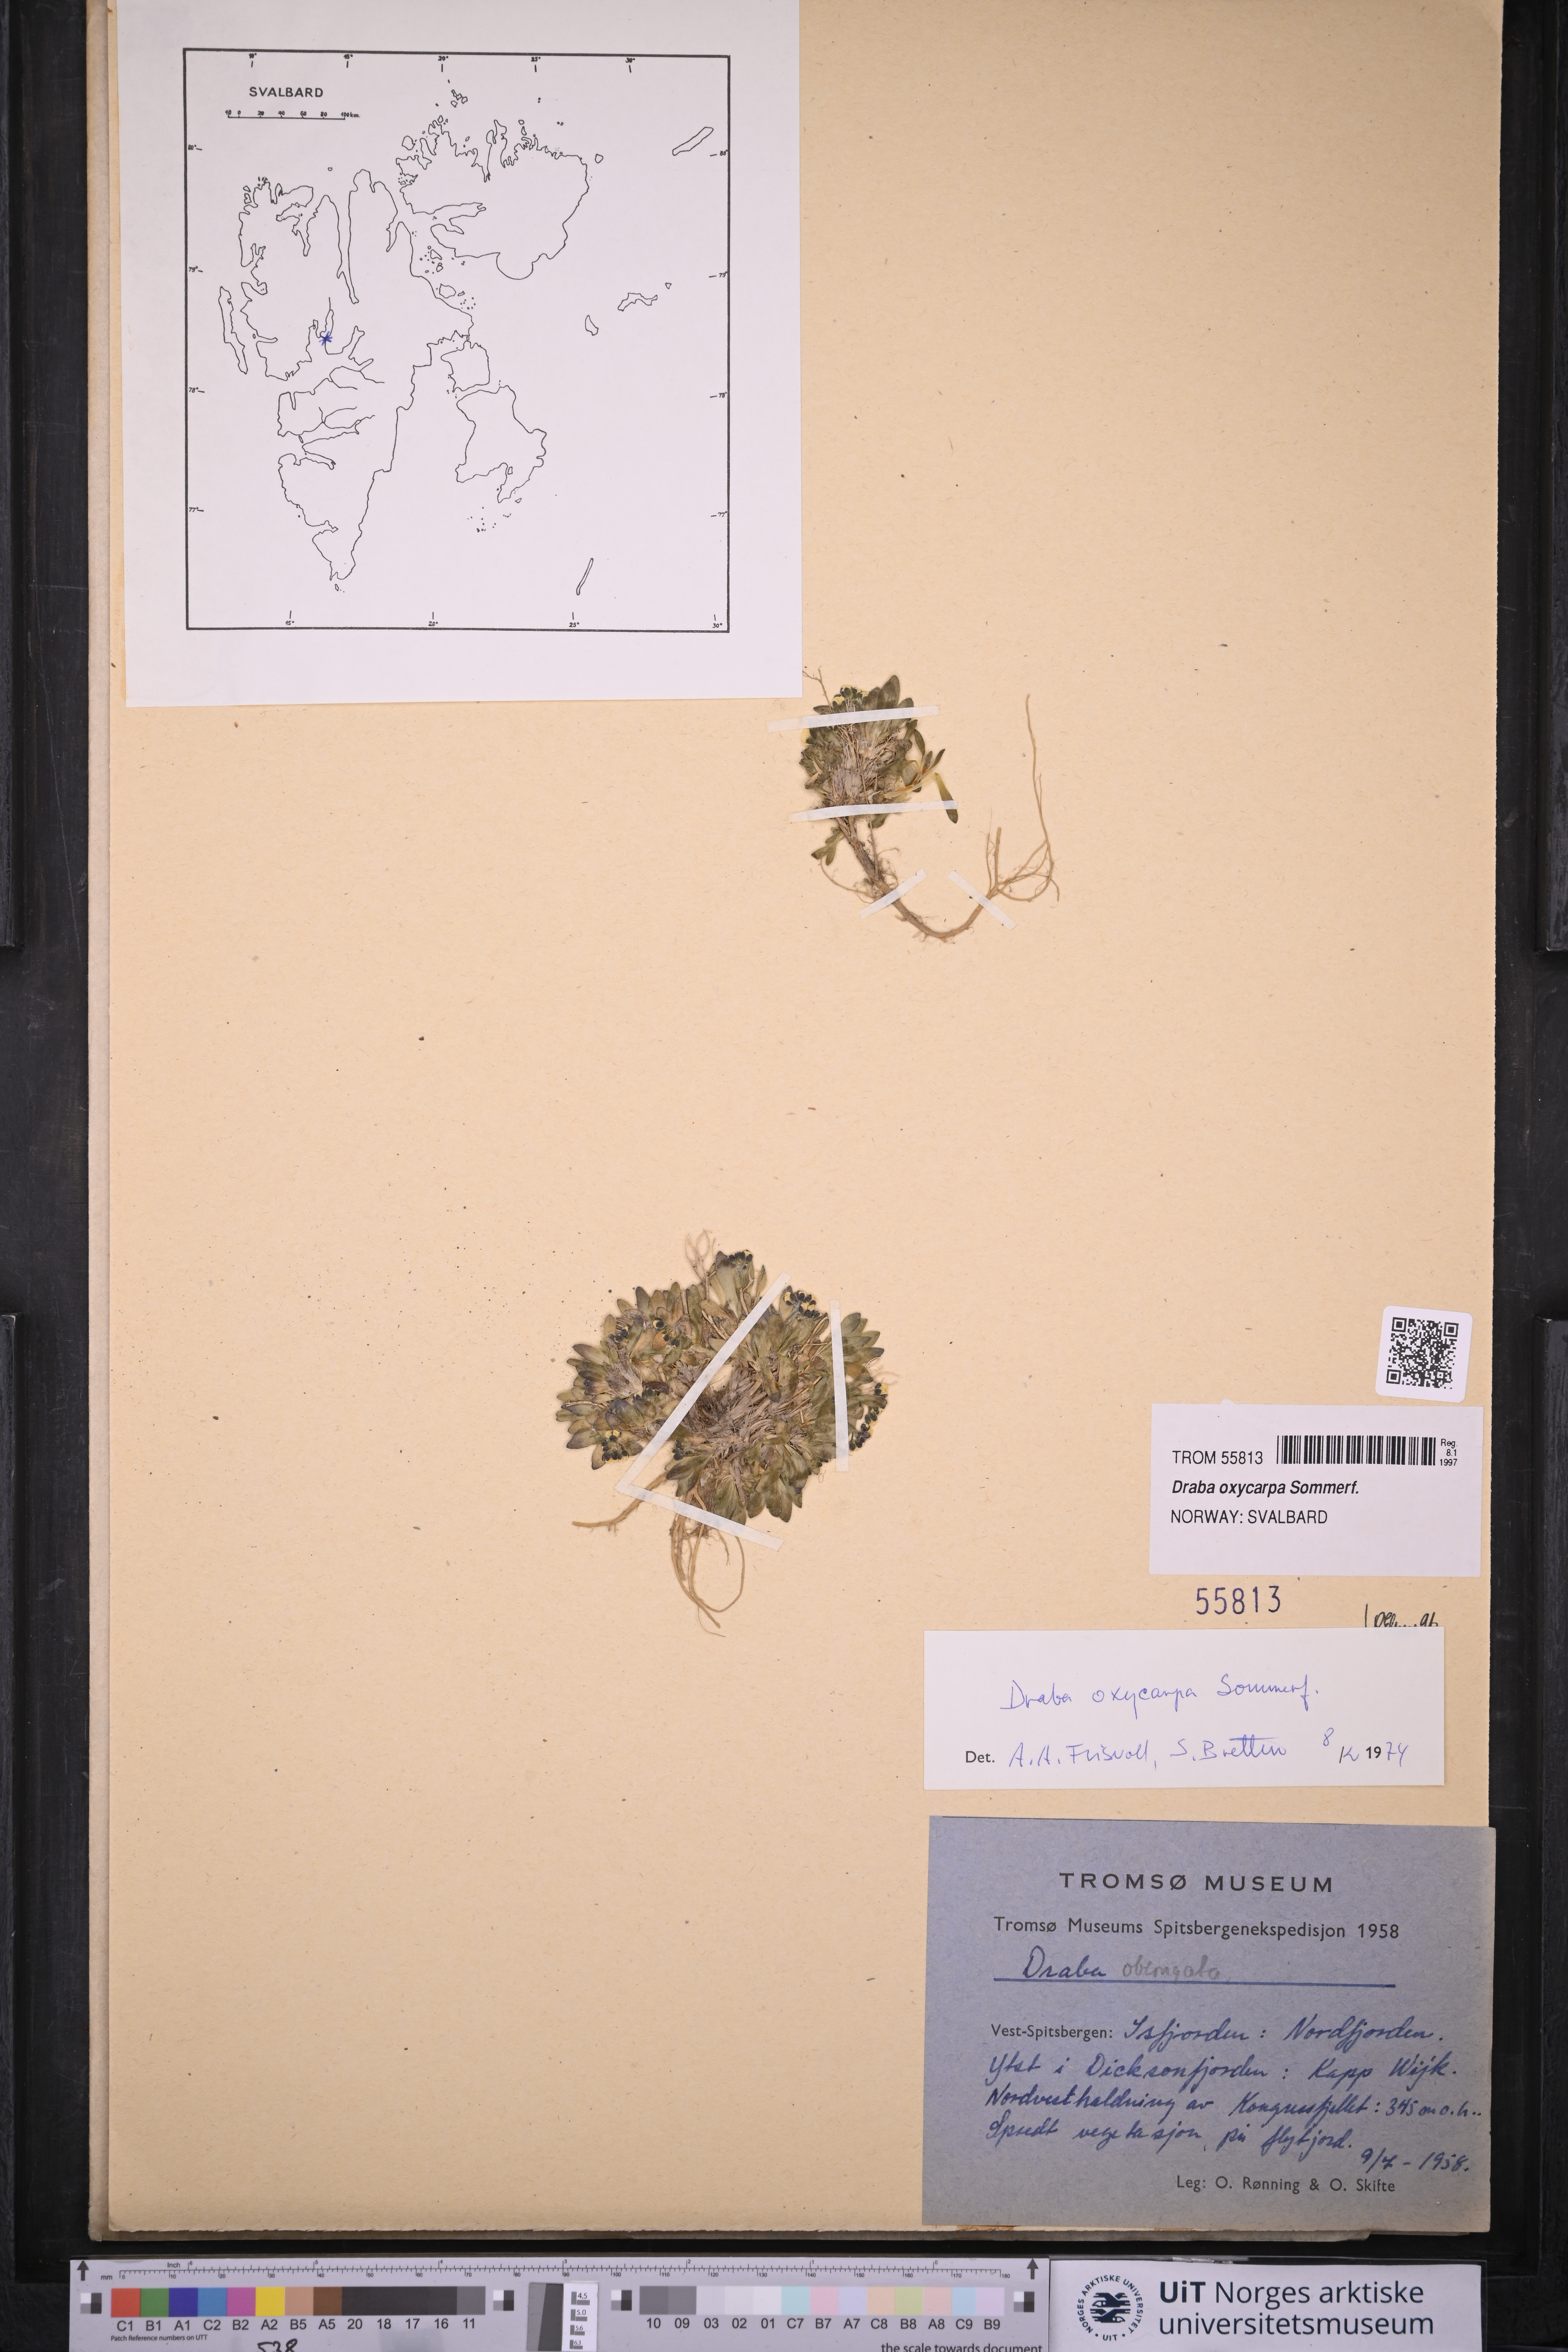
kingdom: Plantae
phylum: Tracheophyta
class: Magnoliopsida
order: Brassicales
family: Brassicaceae
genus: Draba
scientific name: Draba oxycarpa
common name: Sharp-fruited whitlow-grass
